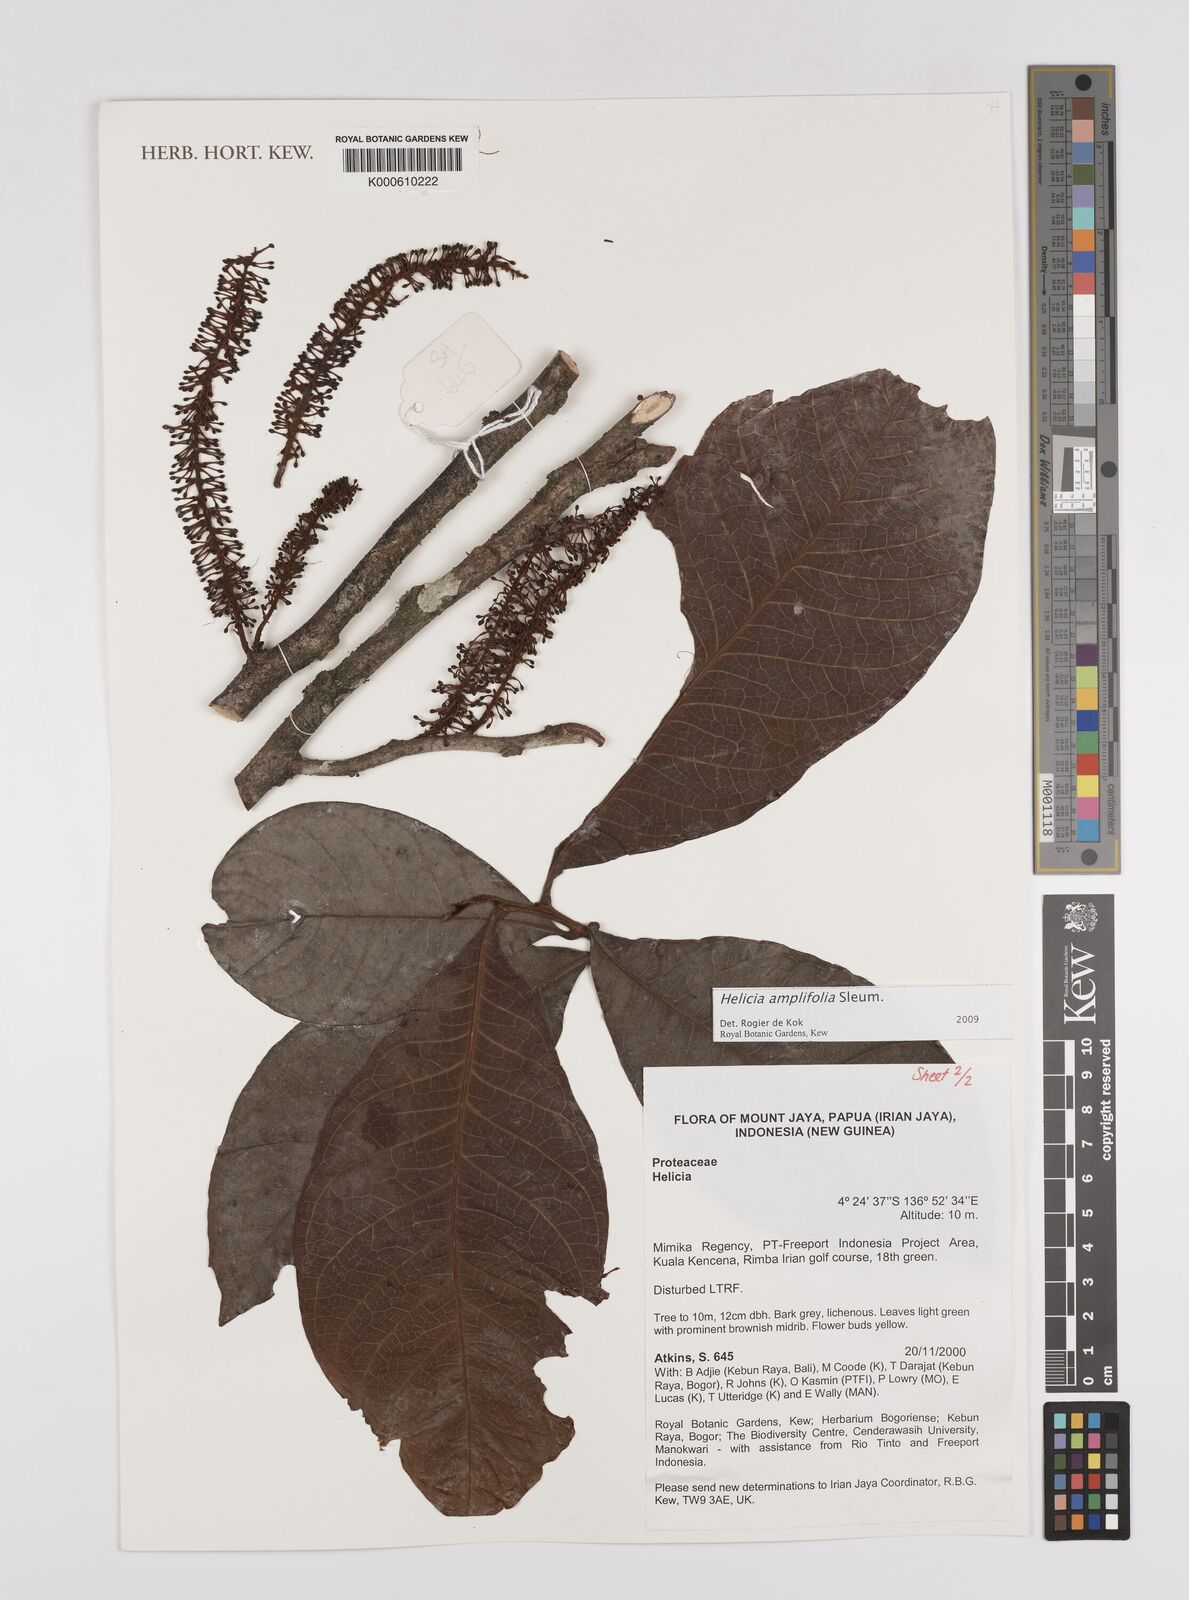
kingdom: Plantae
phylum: Tracheophyta
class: Magnoliopsida
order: Proteales
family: Proteaceae
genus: Helicia
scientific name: Helicia amplifolia
